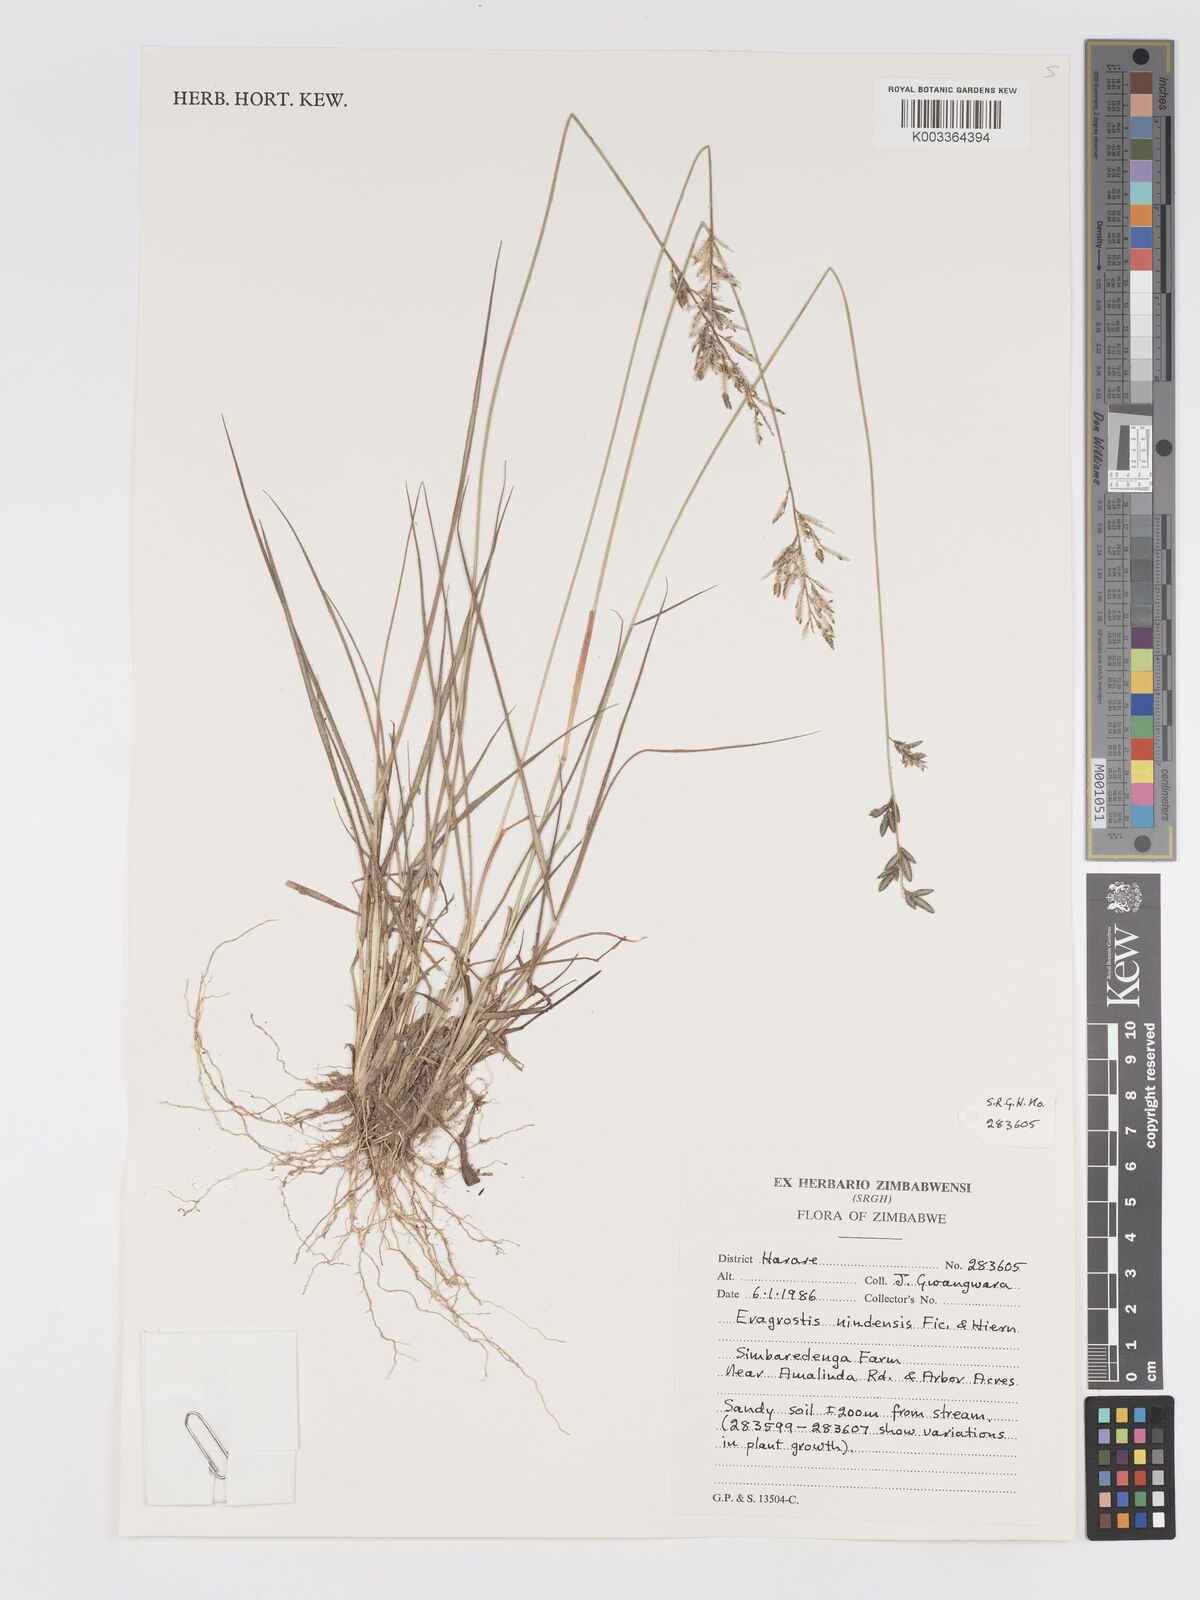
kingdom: Plantae
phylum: Tracheophyta
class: Liliopsida
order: Poales
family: Poaceae
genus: Eragrostis
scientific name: Eragrostis racemosa
